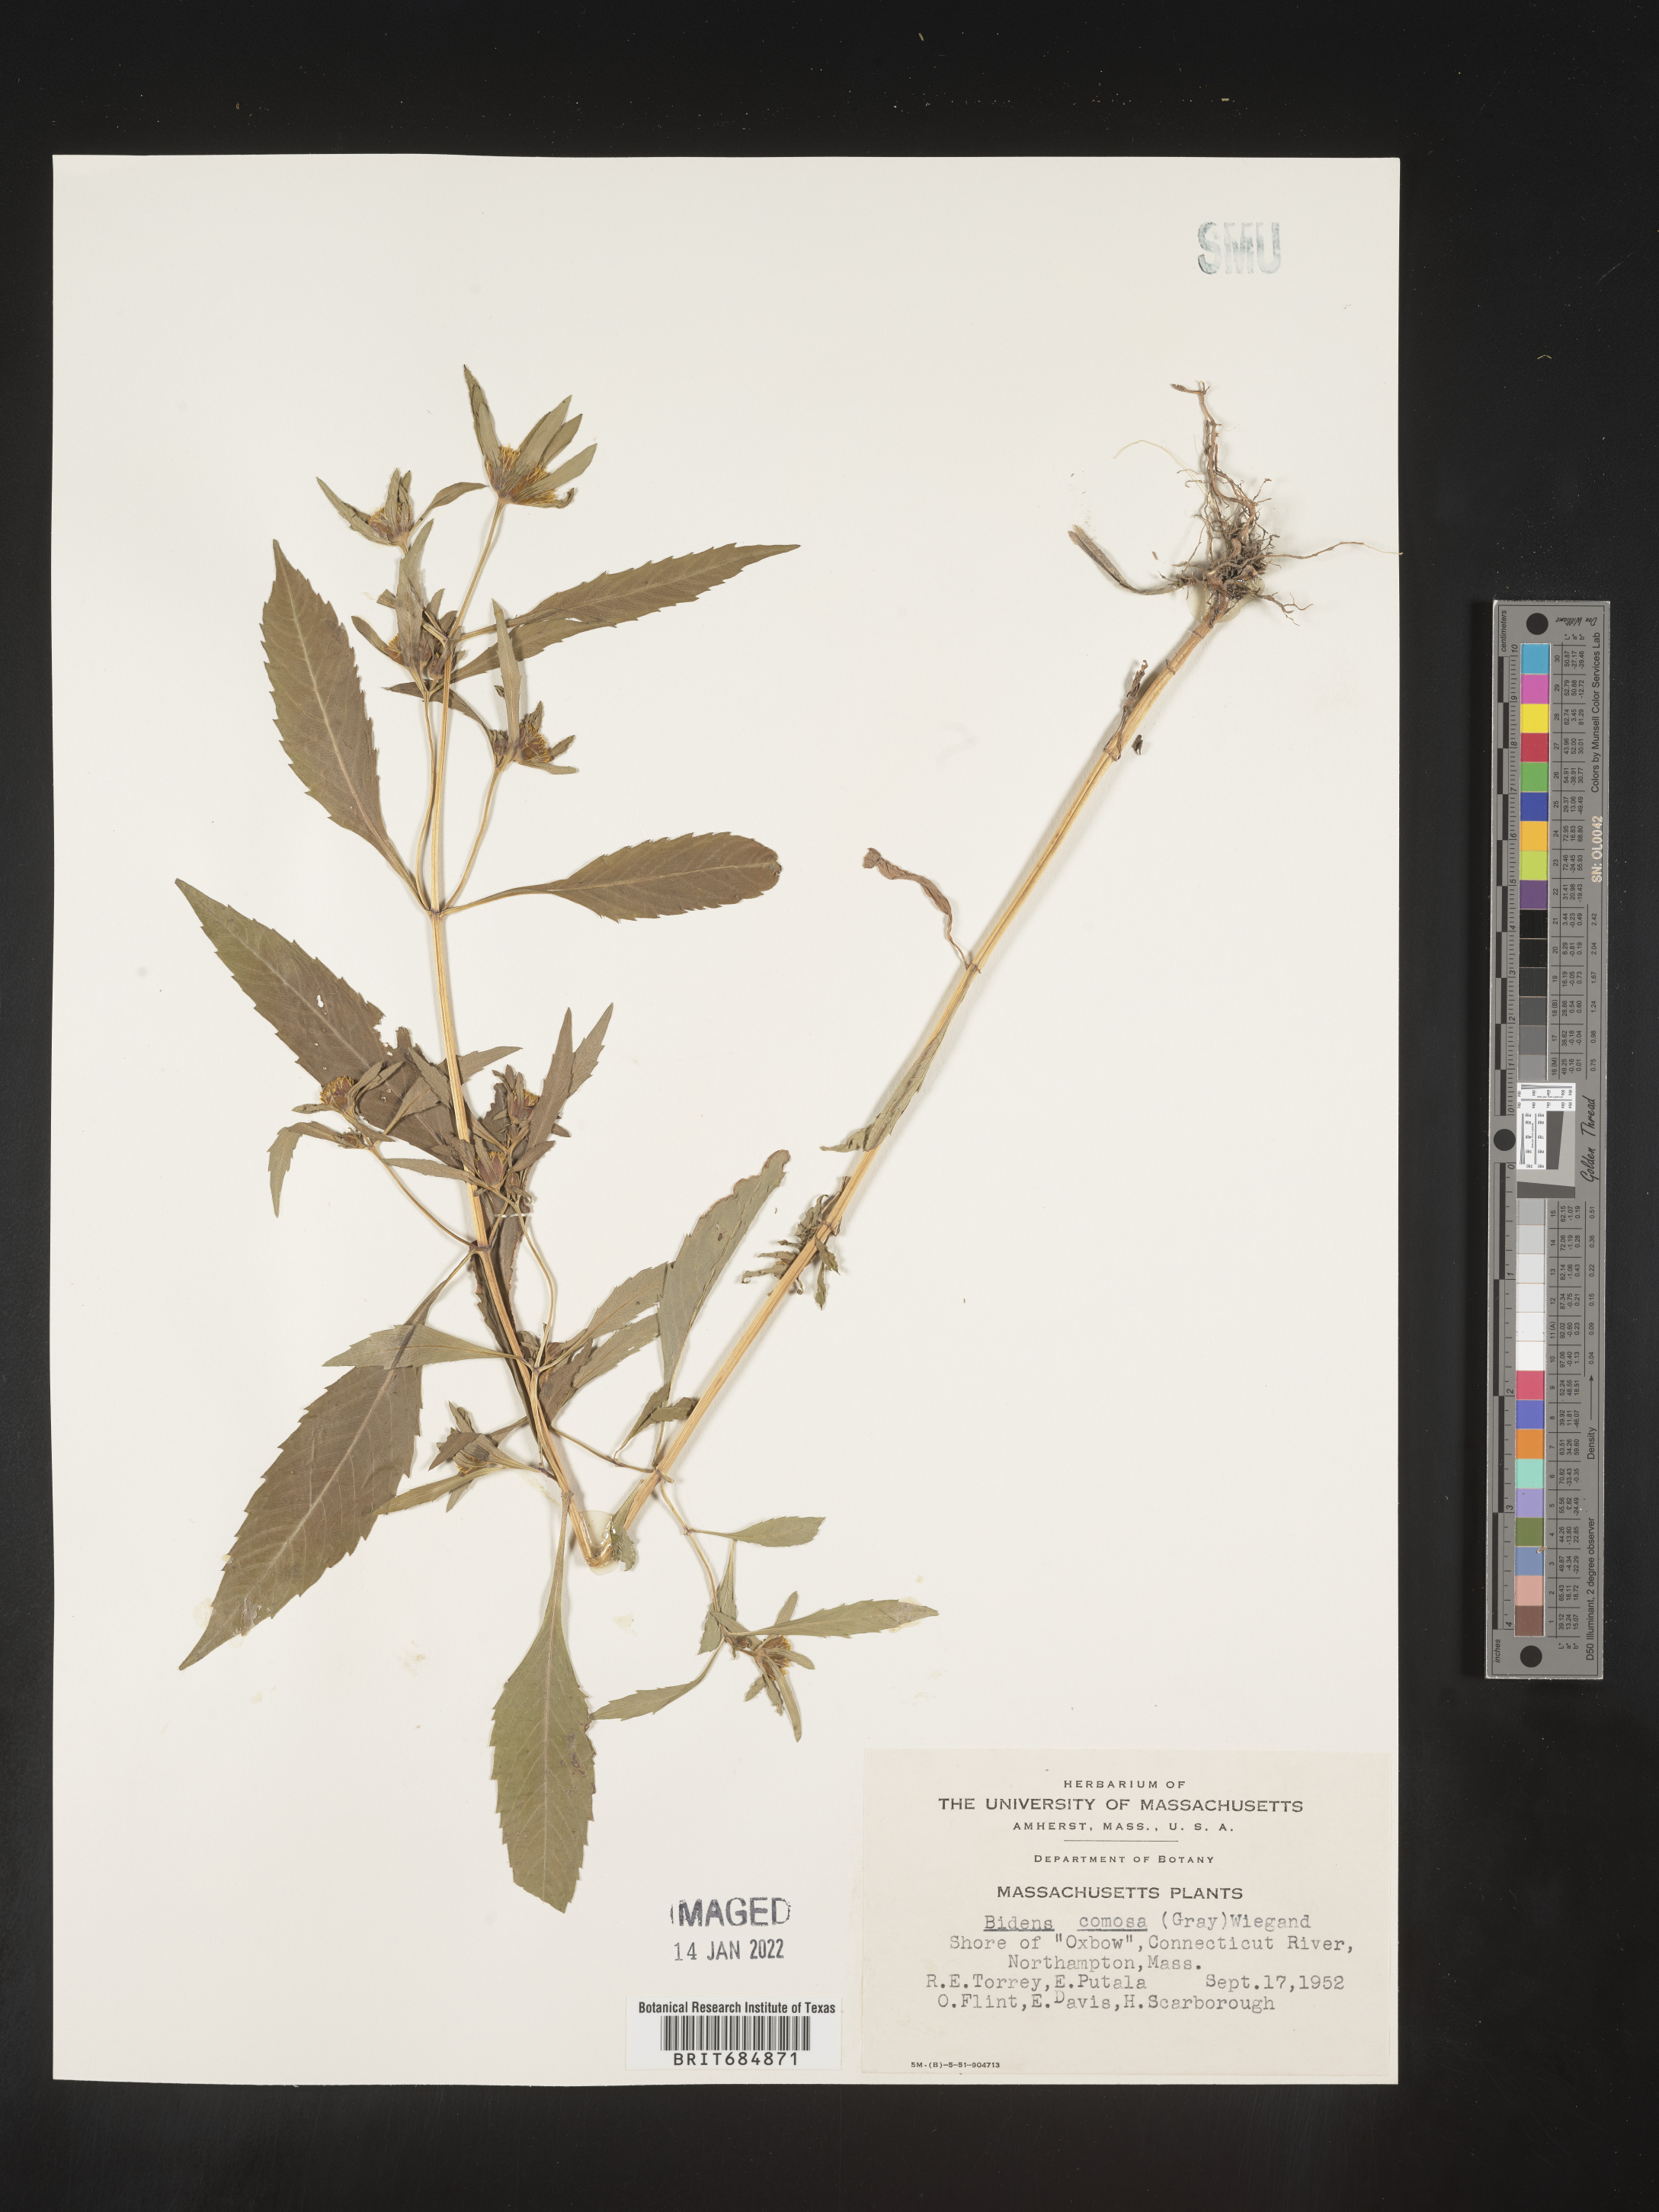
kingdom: Plantae
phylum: Tracheophyta
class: Magnoliopsida
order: Asterales
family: Asteraceae
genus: Bidens
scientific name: Bidens tripartita
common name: Trifid bur-marigold
